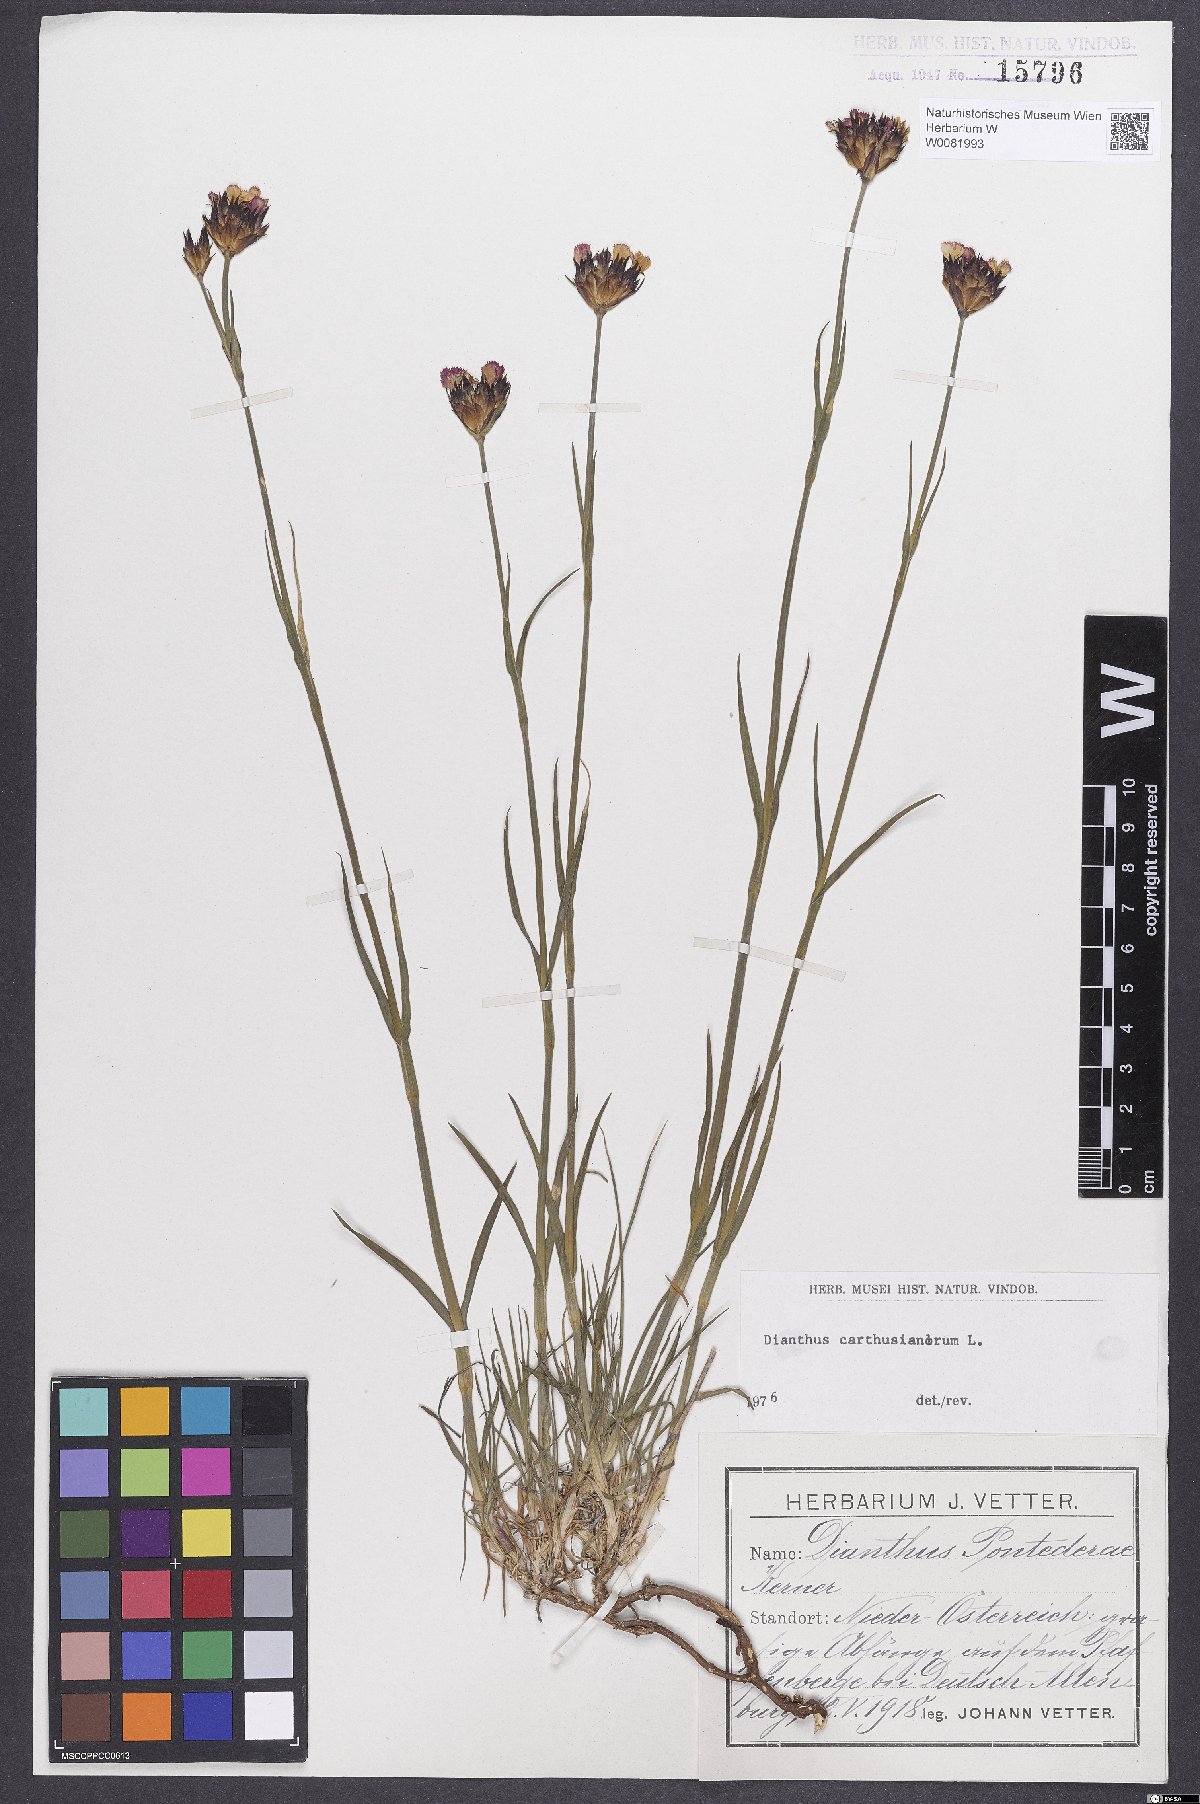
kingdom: Plantae
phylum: Tracheophyta
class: Magnoliopsida
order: Caryophyllales
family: Caryophyllaceae
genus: Dianthus
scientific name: Dianthus carthusianorum
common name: Carthusian pink
